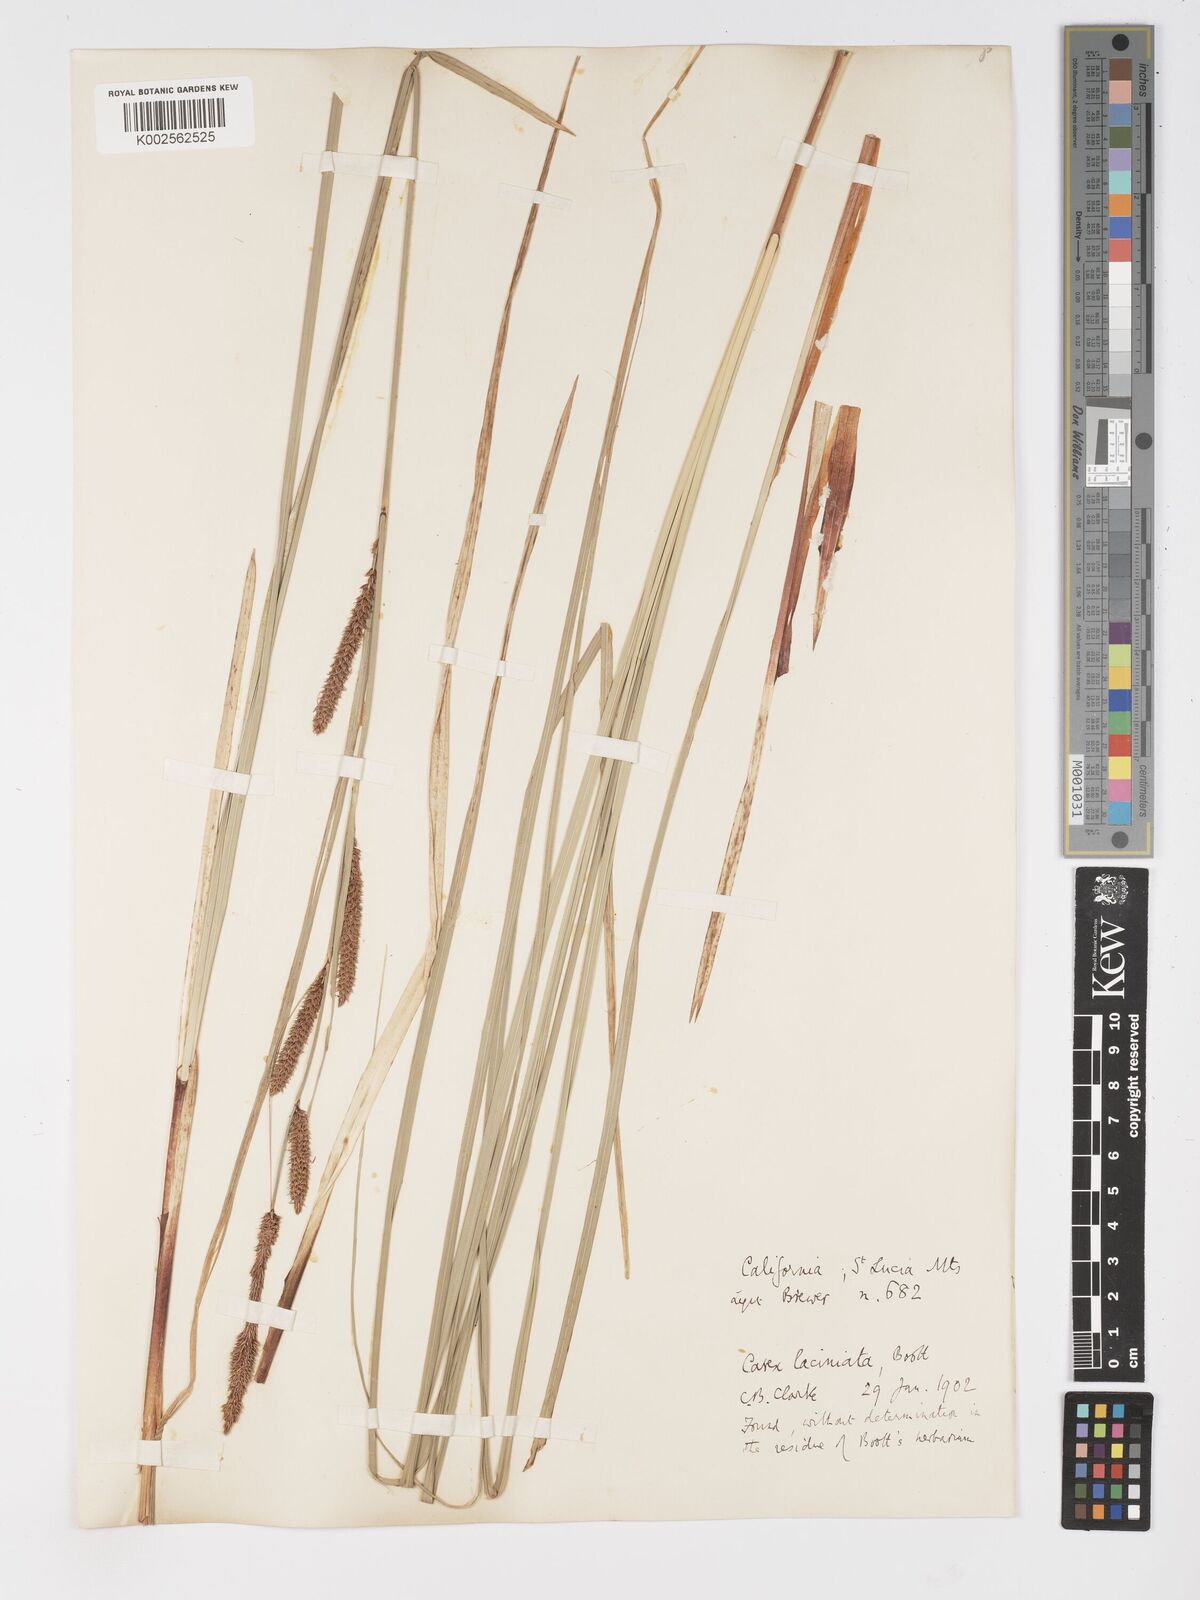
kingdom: Plantae
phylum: Tracheophyta
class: Liliopsida
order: Poales
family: Cyperaceae
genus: Carex
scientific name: Carex barbarae
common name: Santa barbara sedge
